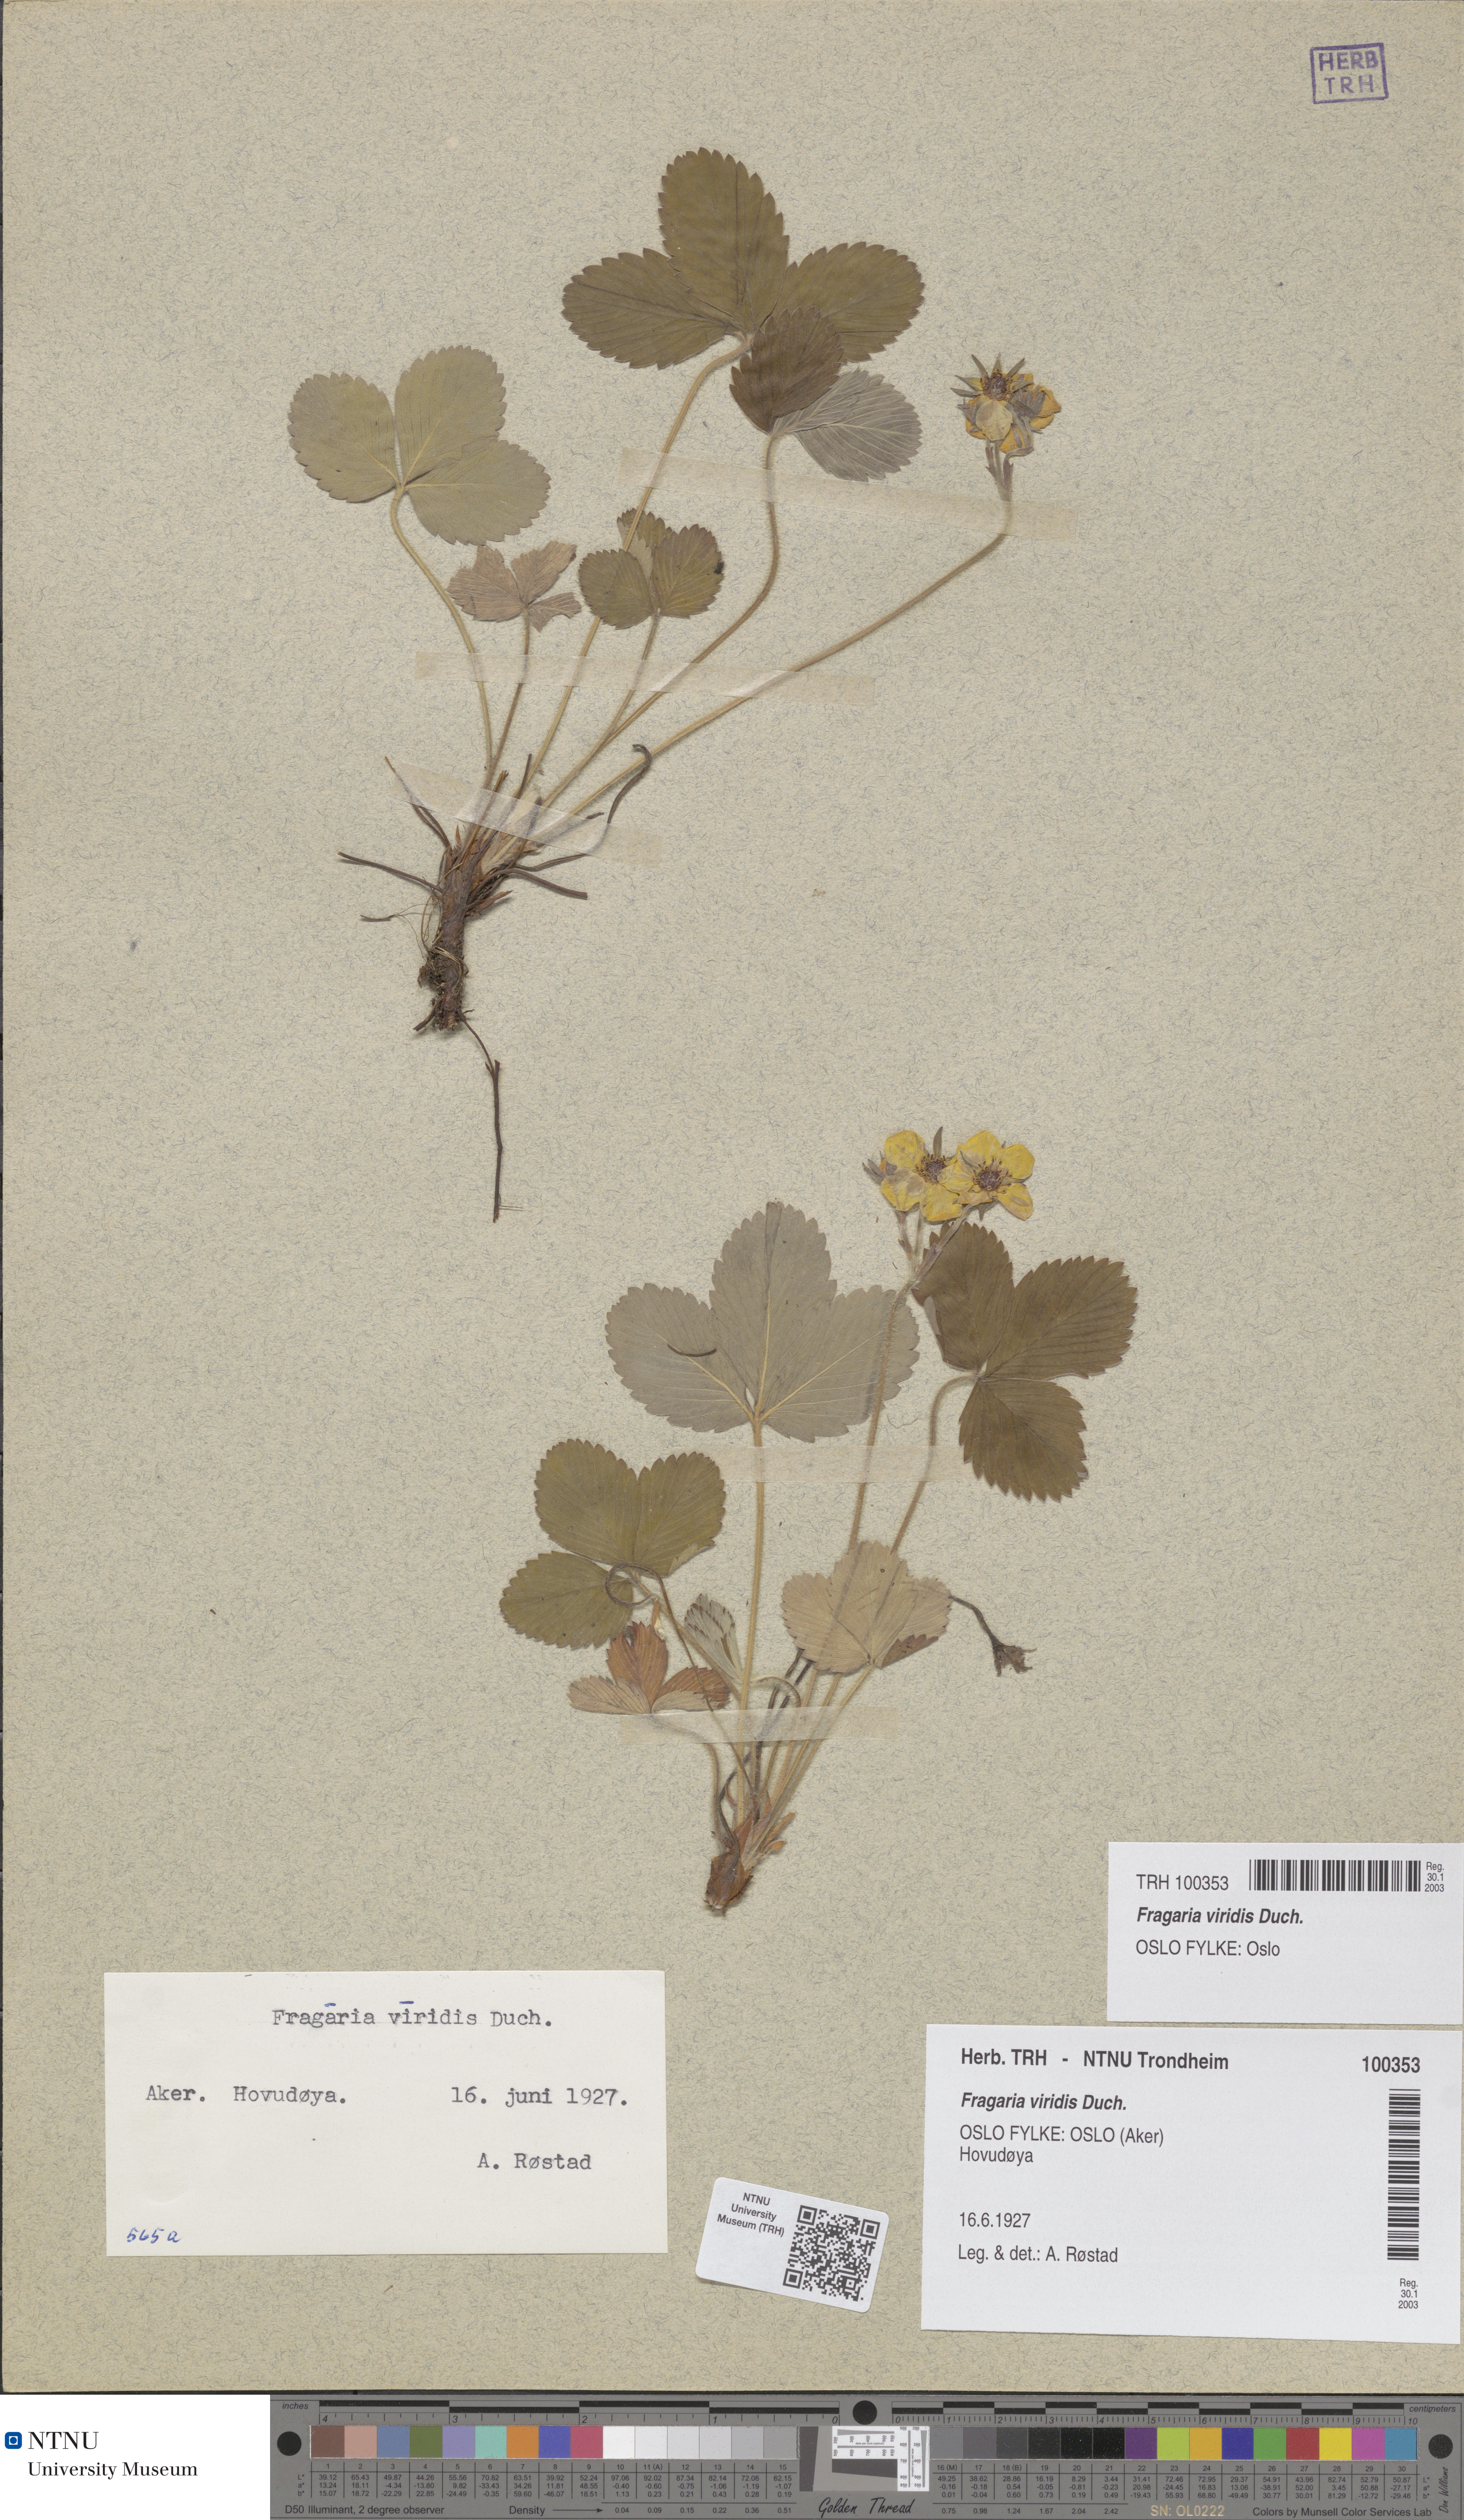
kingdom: Plantae
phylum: Tracheophyta
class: Magnoliopsida
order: Rosales
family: Rosaceae
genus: Fragaria
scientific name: Fragaria viridis
